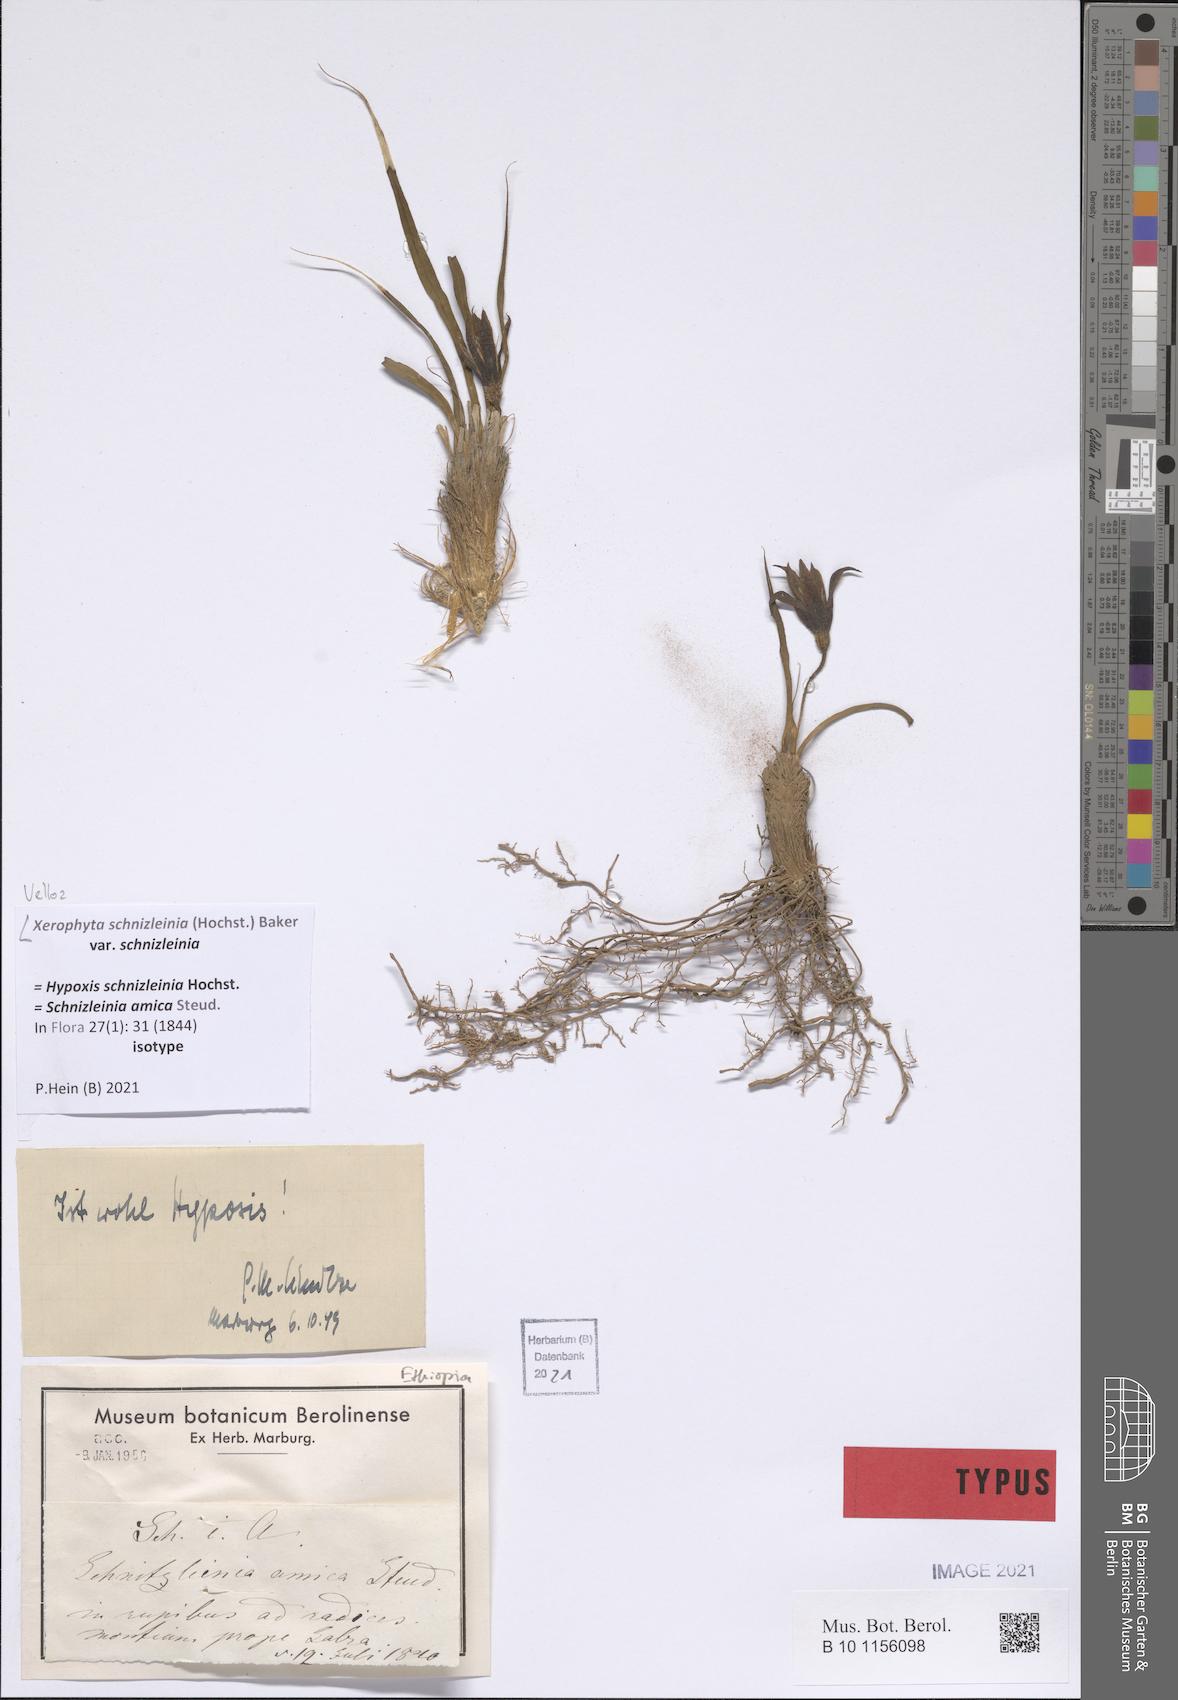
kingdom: Plantae
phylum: Tracheophyta
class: Liliopsida
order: Pandanales
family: Velloziaceae
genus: Xerophyta
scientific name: Xerophyta schnizleinia
